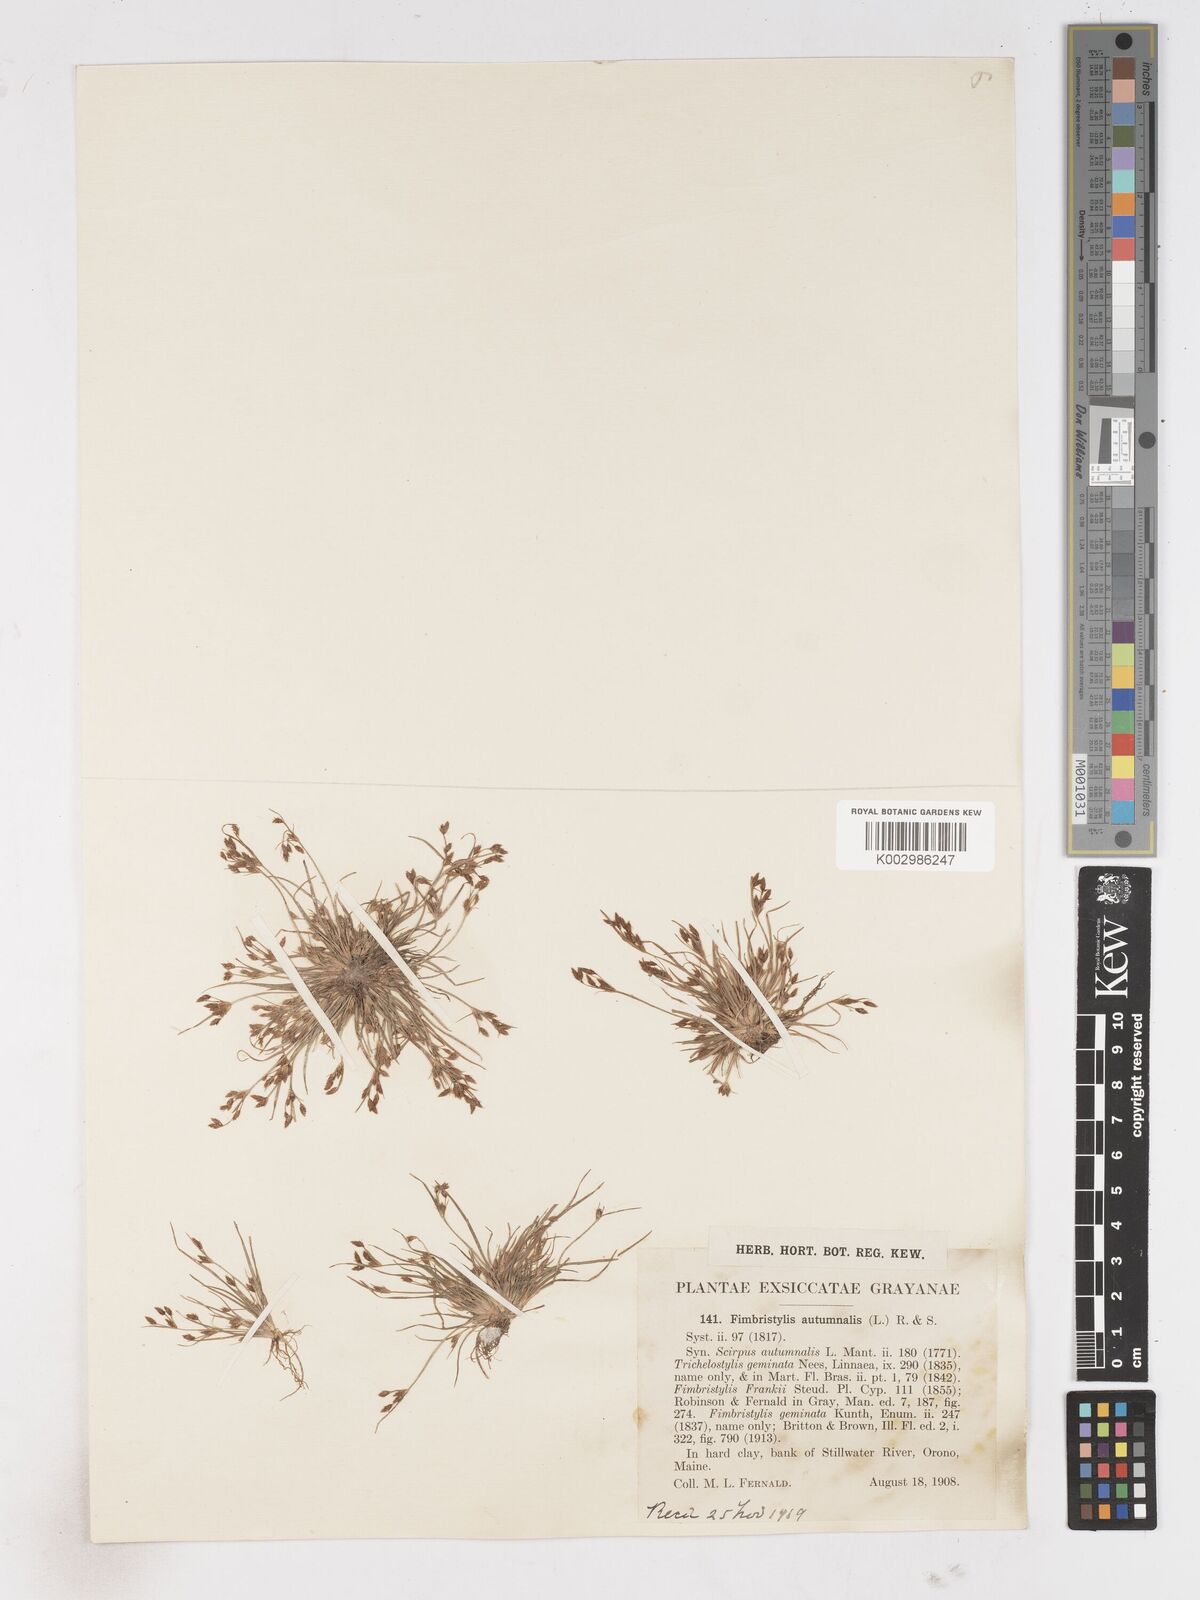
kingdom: Plantae
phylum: Tracheophyta
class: Liliopsida
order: Poales
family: Cyperaceae
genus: Fimbristylis
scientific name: Fimbristylis autumnalis
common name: Slender fimbristylis
